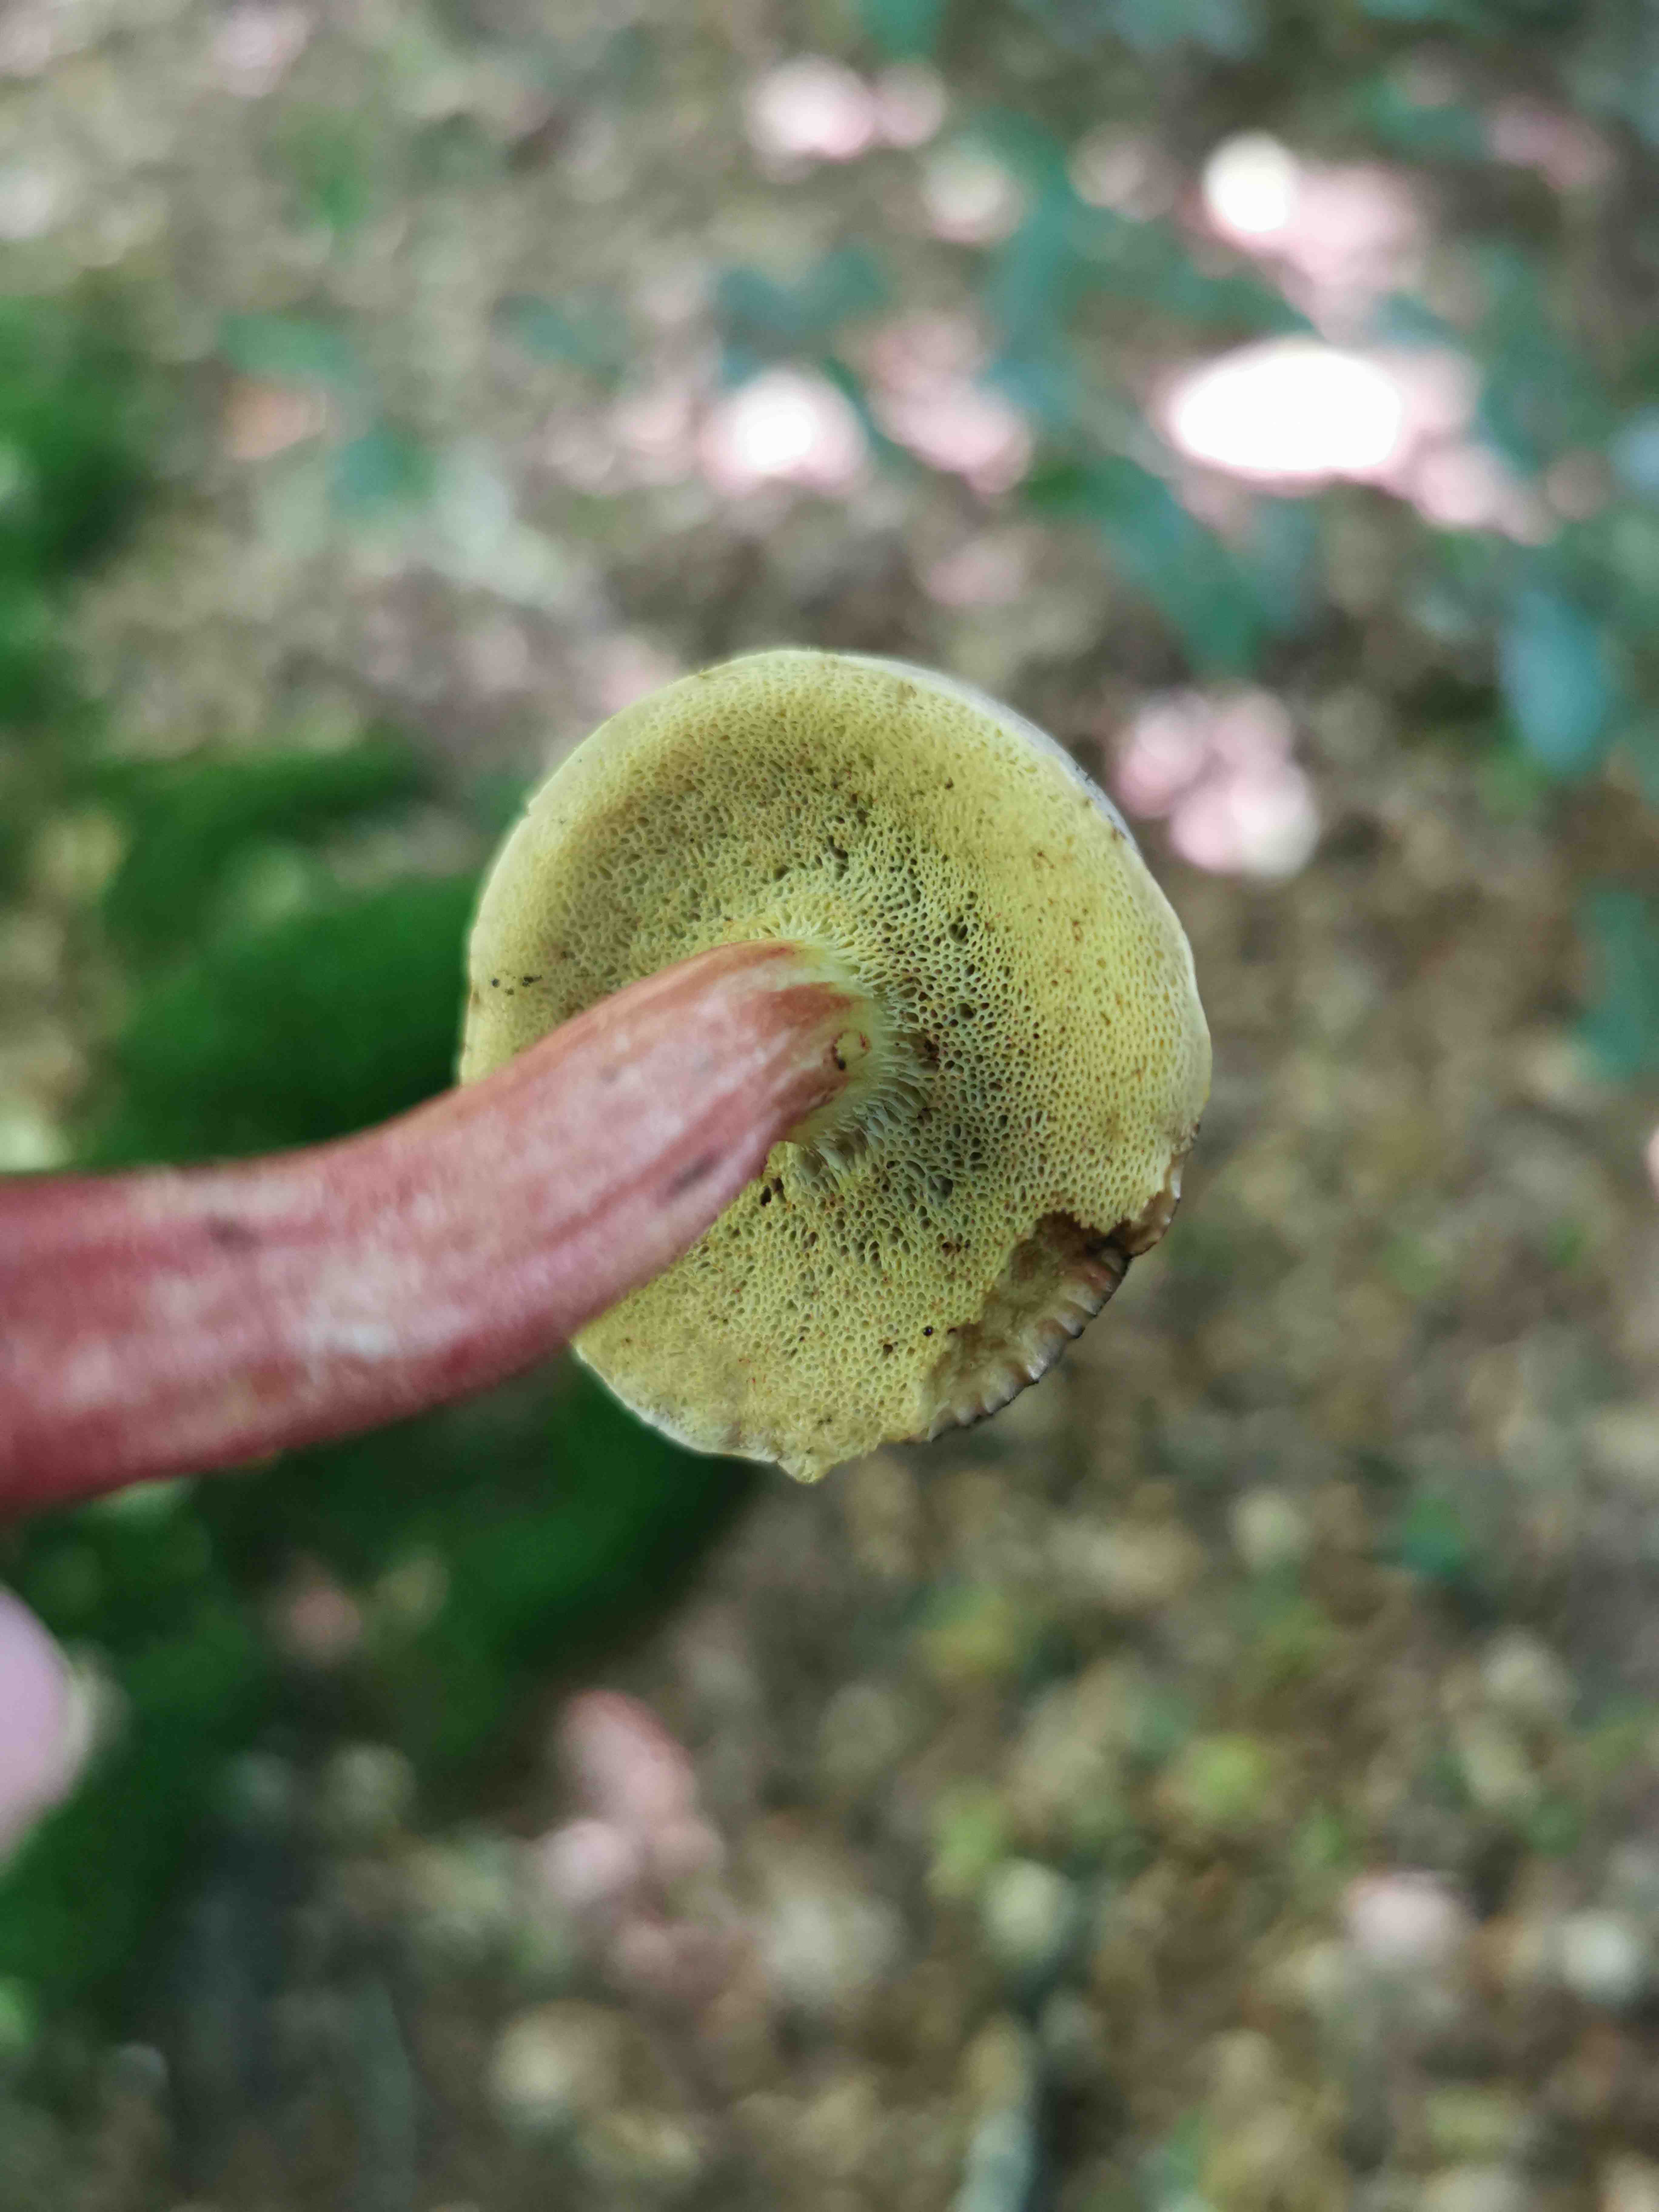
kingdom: Fungi
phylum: Basidiomycota
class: Agaricomycetes
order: Boletales
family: Boletaceae
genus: Xerocomellus
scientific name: Xerocomellus
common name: dværgrørhat
